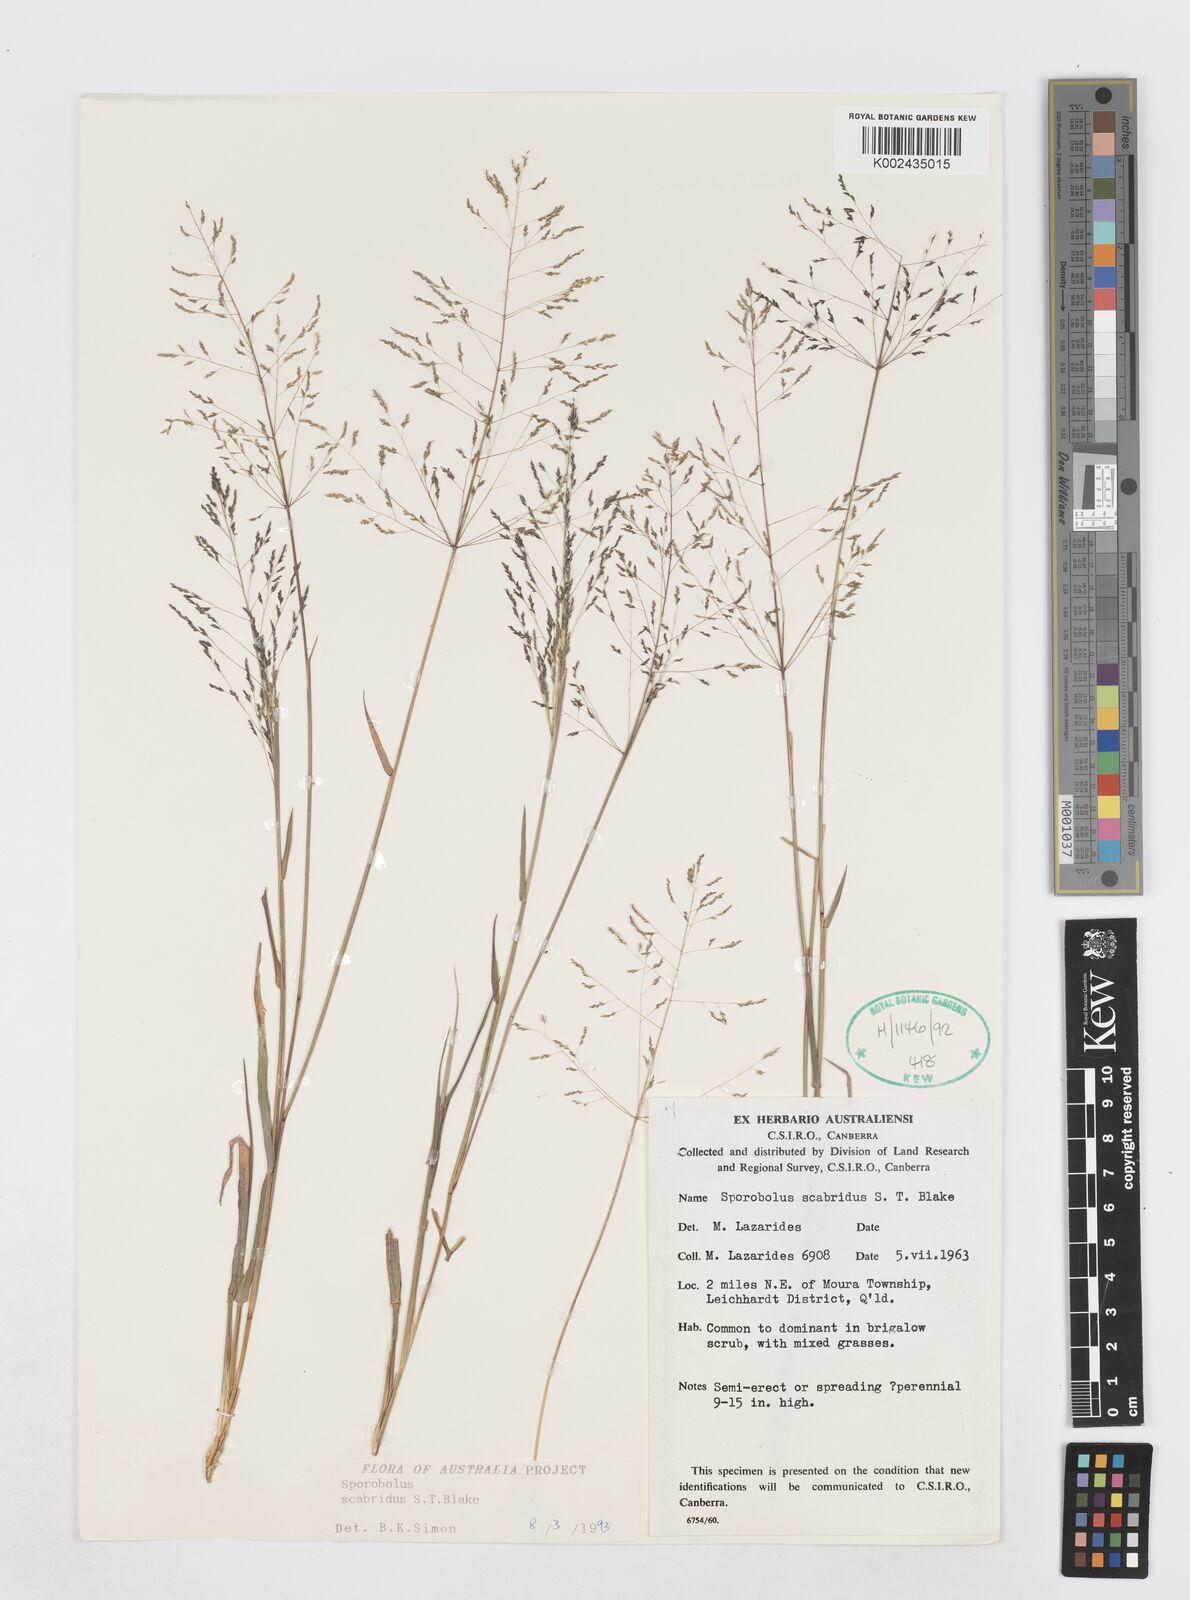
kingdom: Plantae
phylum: Tracheophyta
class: Liliopsida
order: Poales
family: Poaceae
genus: Sporobolus
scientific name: Sporobolus scabridus
